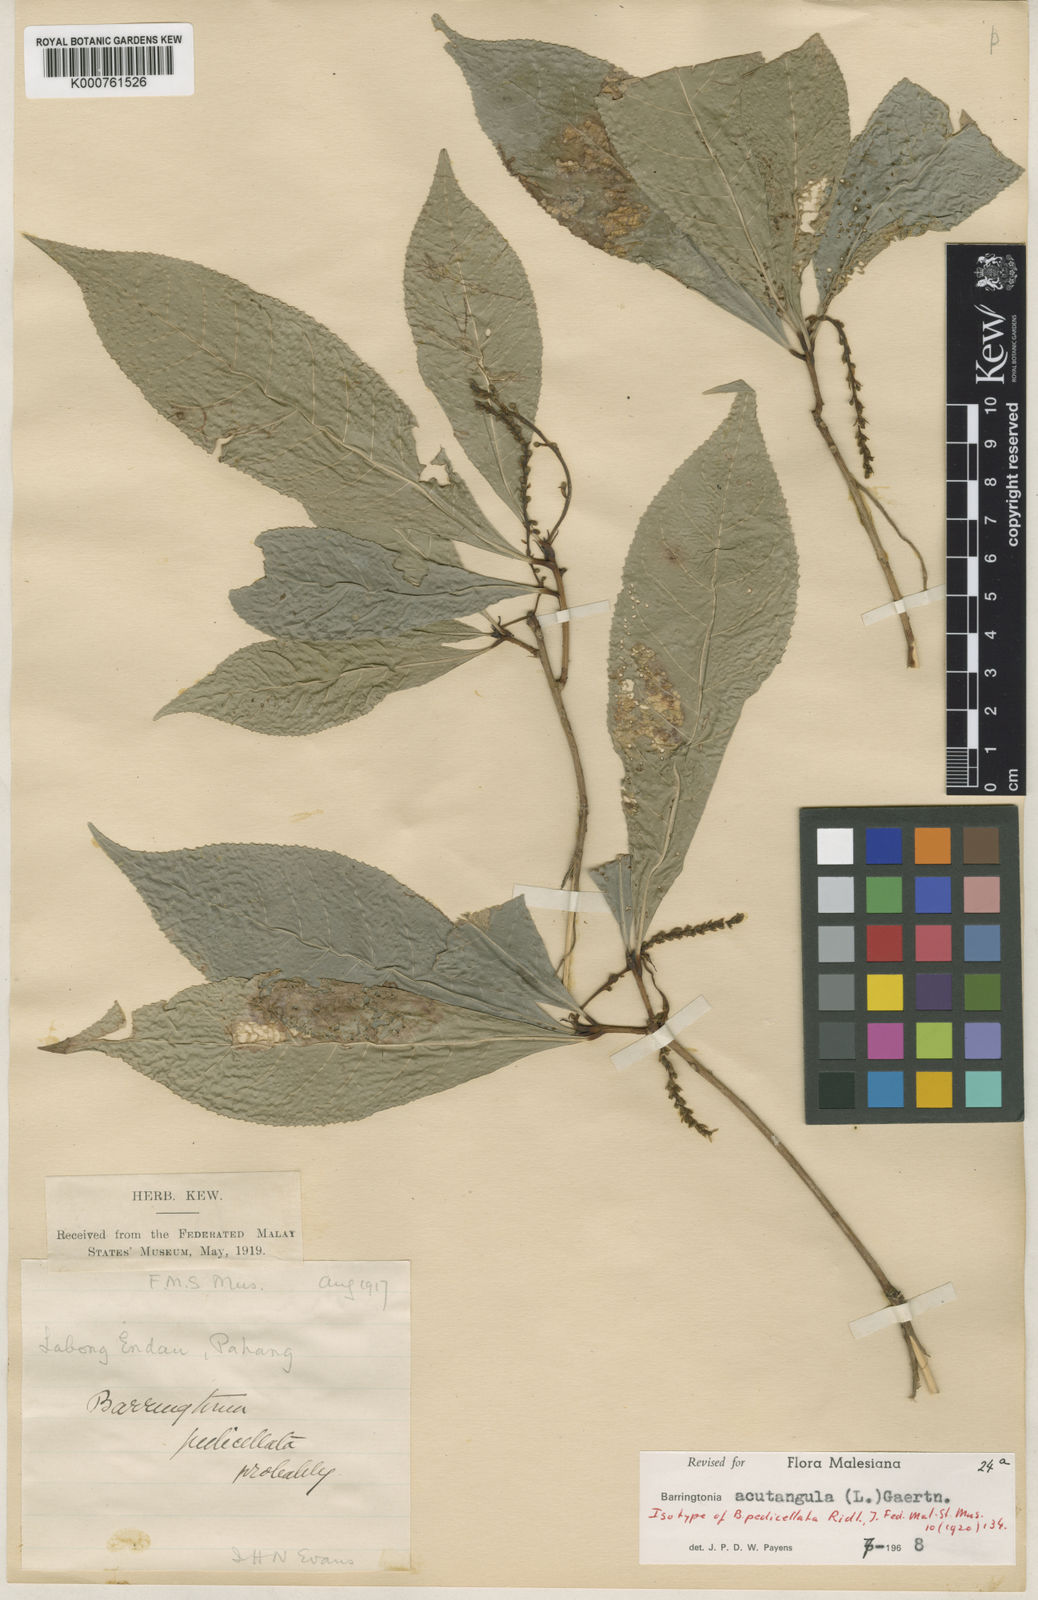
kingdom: Plantae
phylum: Tracheophyta
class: Magnoliopsida
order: Ericales
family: Lecythidaceae
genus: Barringtonia
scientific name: Barringtonia acutangula
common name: Freshwater mangrove
